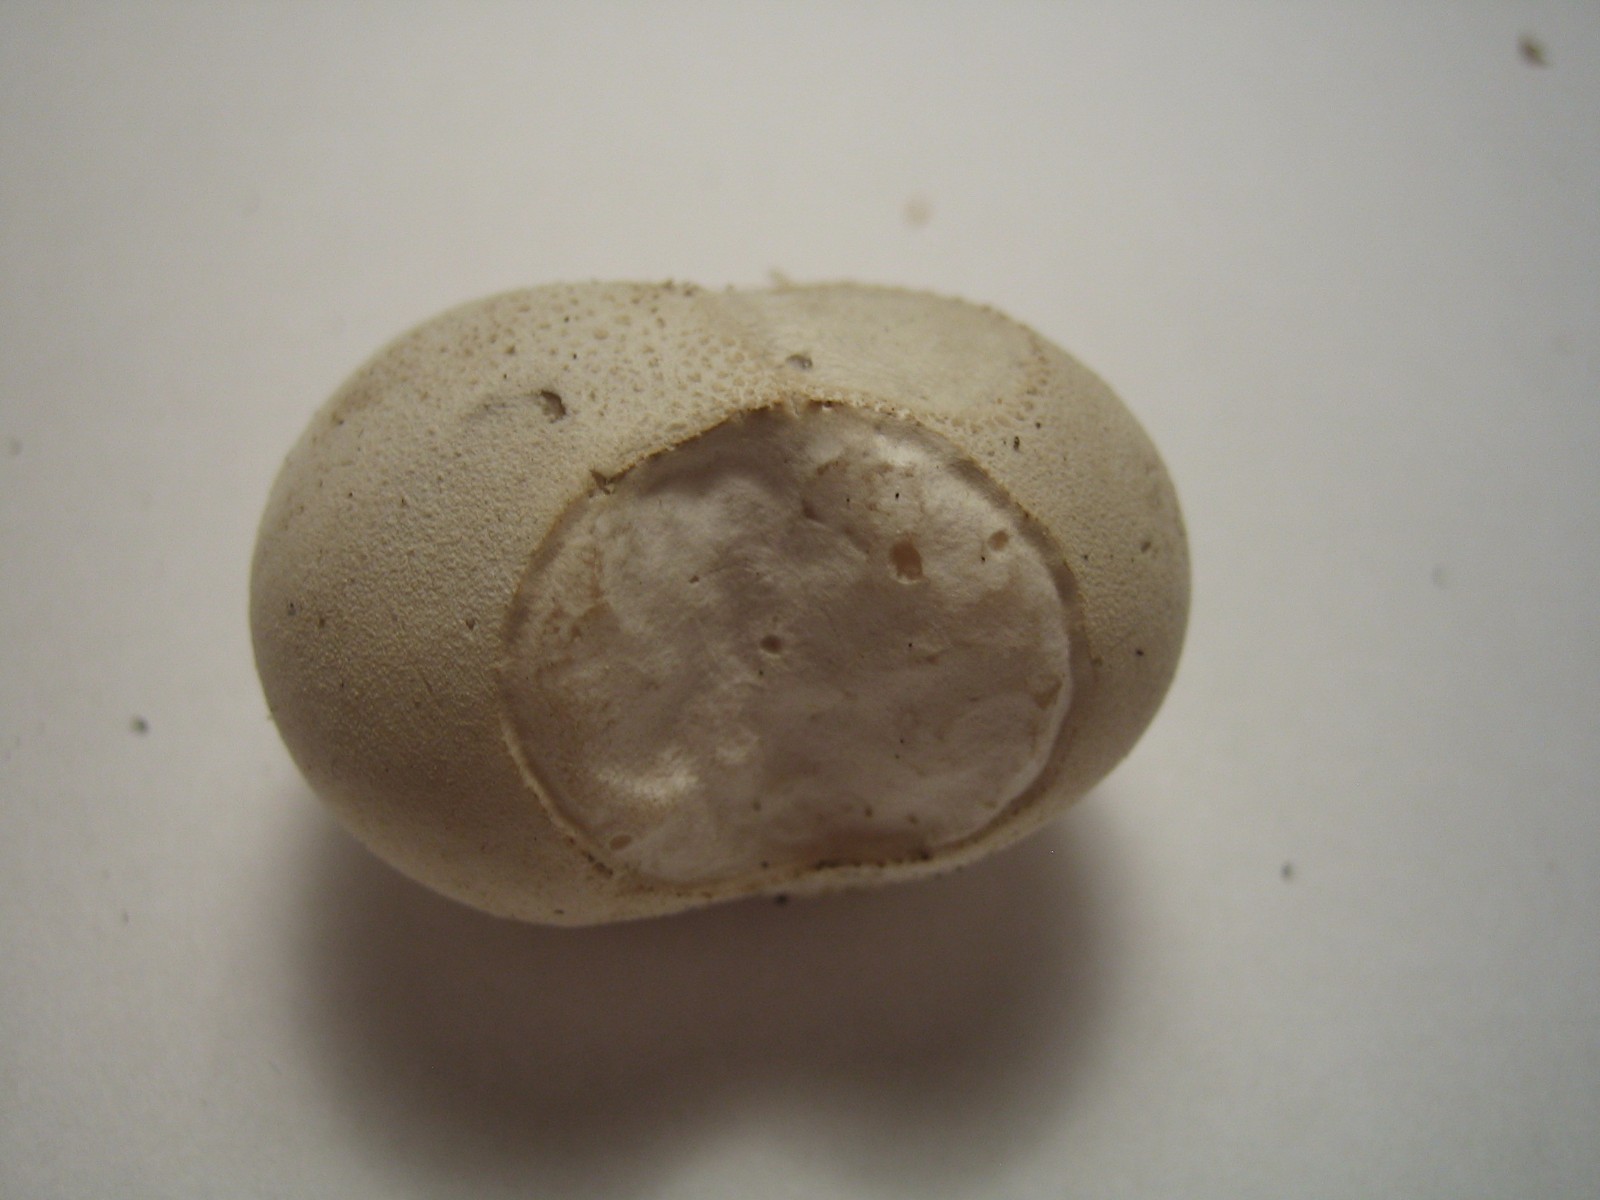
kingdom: Fungi
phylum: Basidiomycota
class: Agaricomycetes
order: Agaricales
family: Lycoperdaceae
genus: Bovista
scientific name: Bovista
